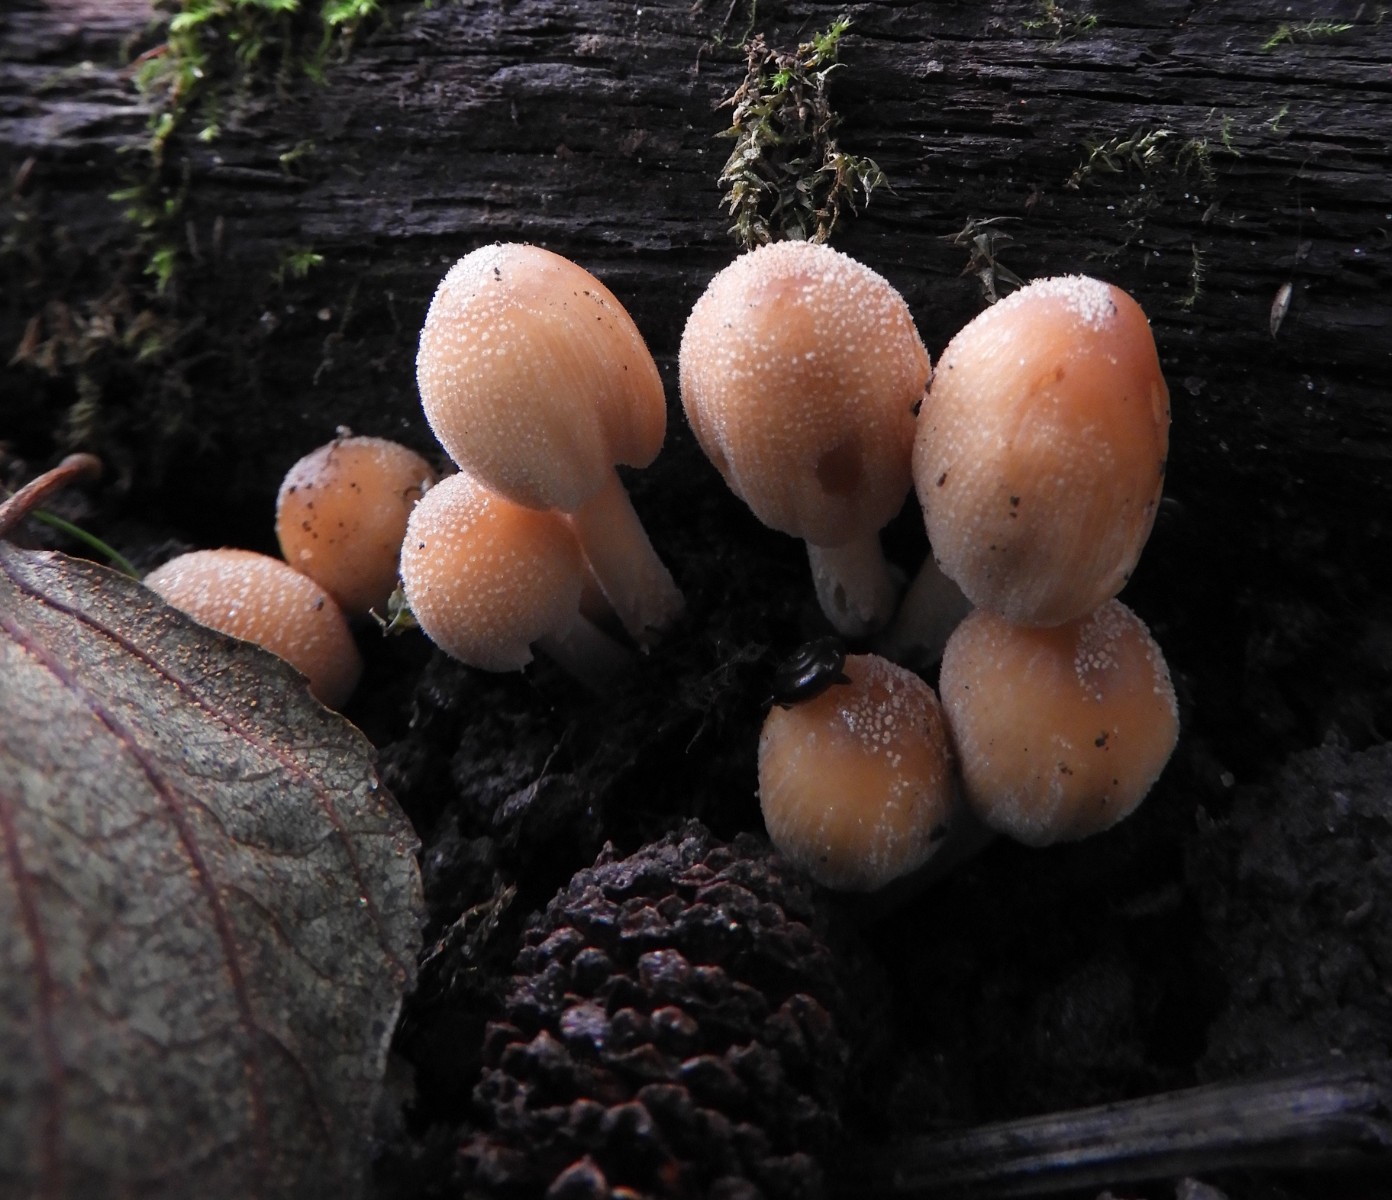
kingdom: Fungi
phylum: Basidiomycota
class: Agaricomycetes
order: Agaricales
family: Psathyrellaceae
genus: Coprinellus
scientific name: Coprinellus micaceus
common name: glimmer-blækhat
